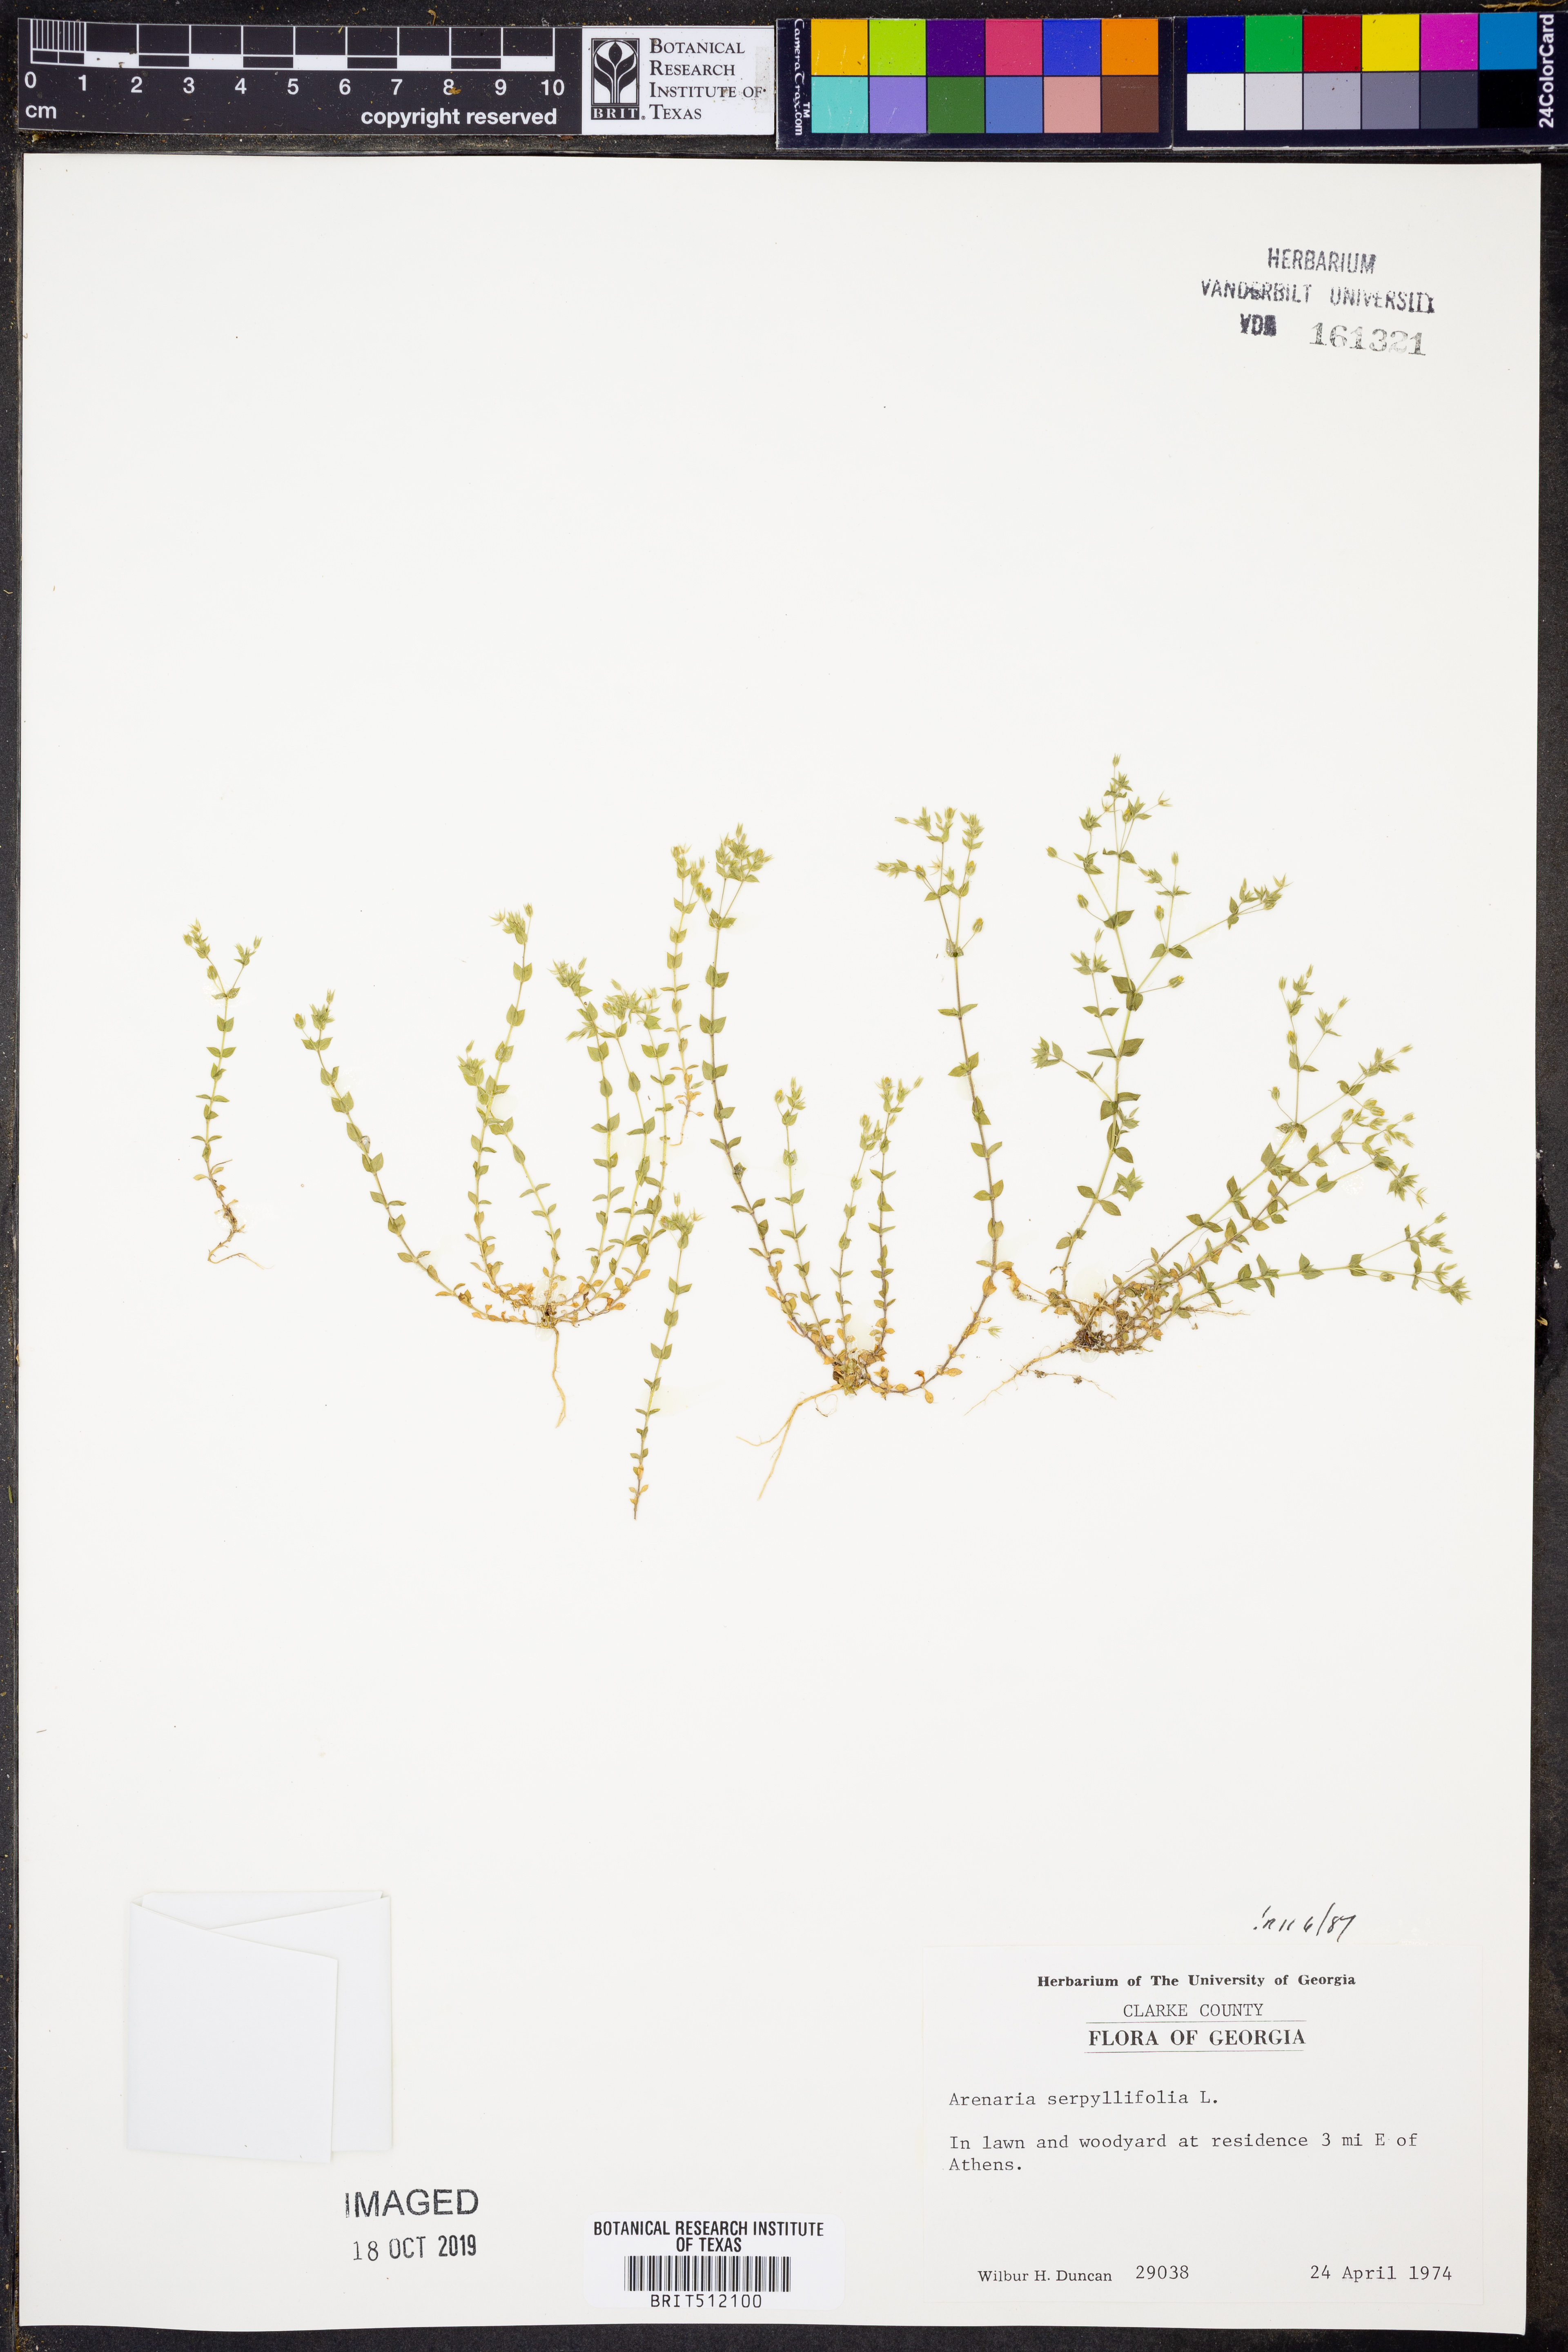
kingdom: Plantae
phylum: Tracheophyta
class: Magnoliopsida
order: Caryophyllales
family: Caryophyllaceae
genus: Arenaria
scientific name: Arenaria serpyllifolia
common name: Thyme-leaved sandwort
